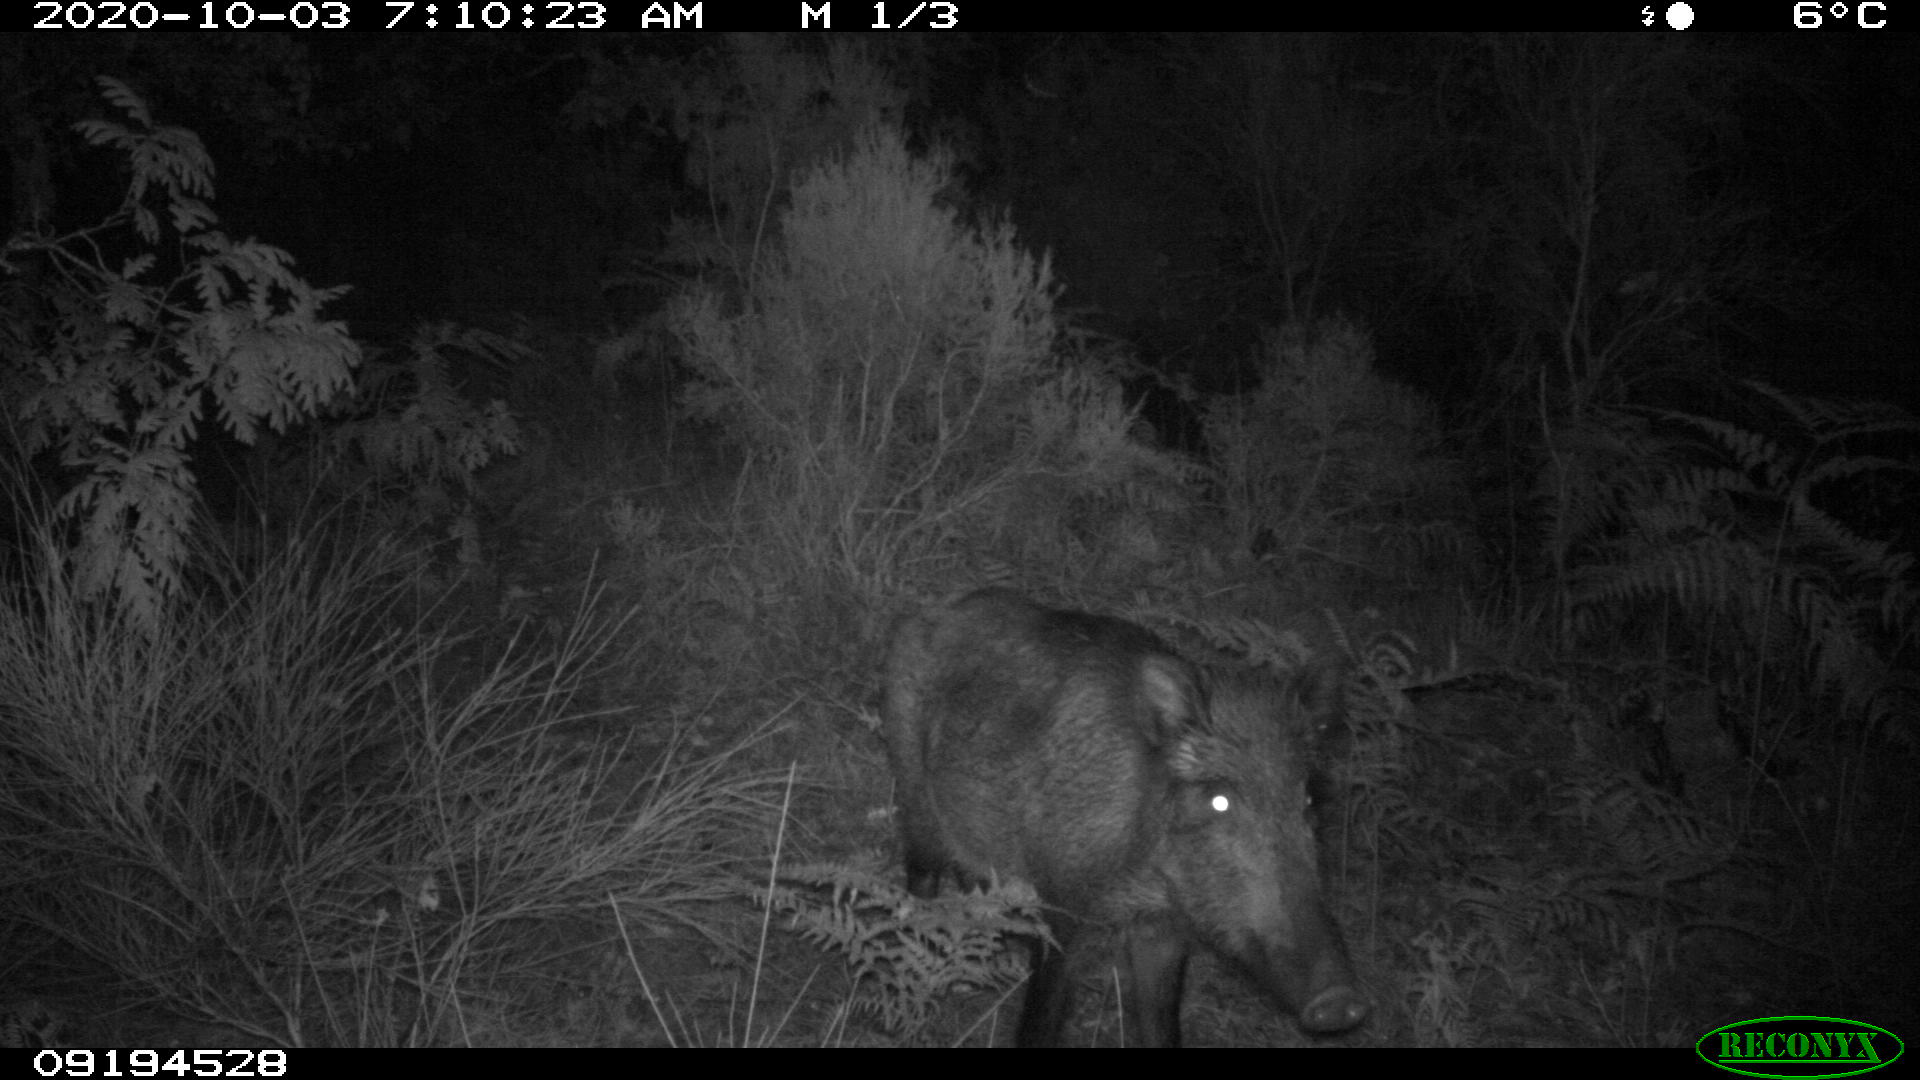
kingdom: Animalia
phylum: Chordata
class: Mammalia
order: Artiodactyla
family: Suidae
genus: Sus
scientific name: Sus scrofa
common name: Wild boar
